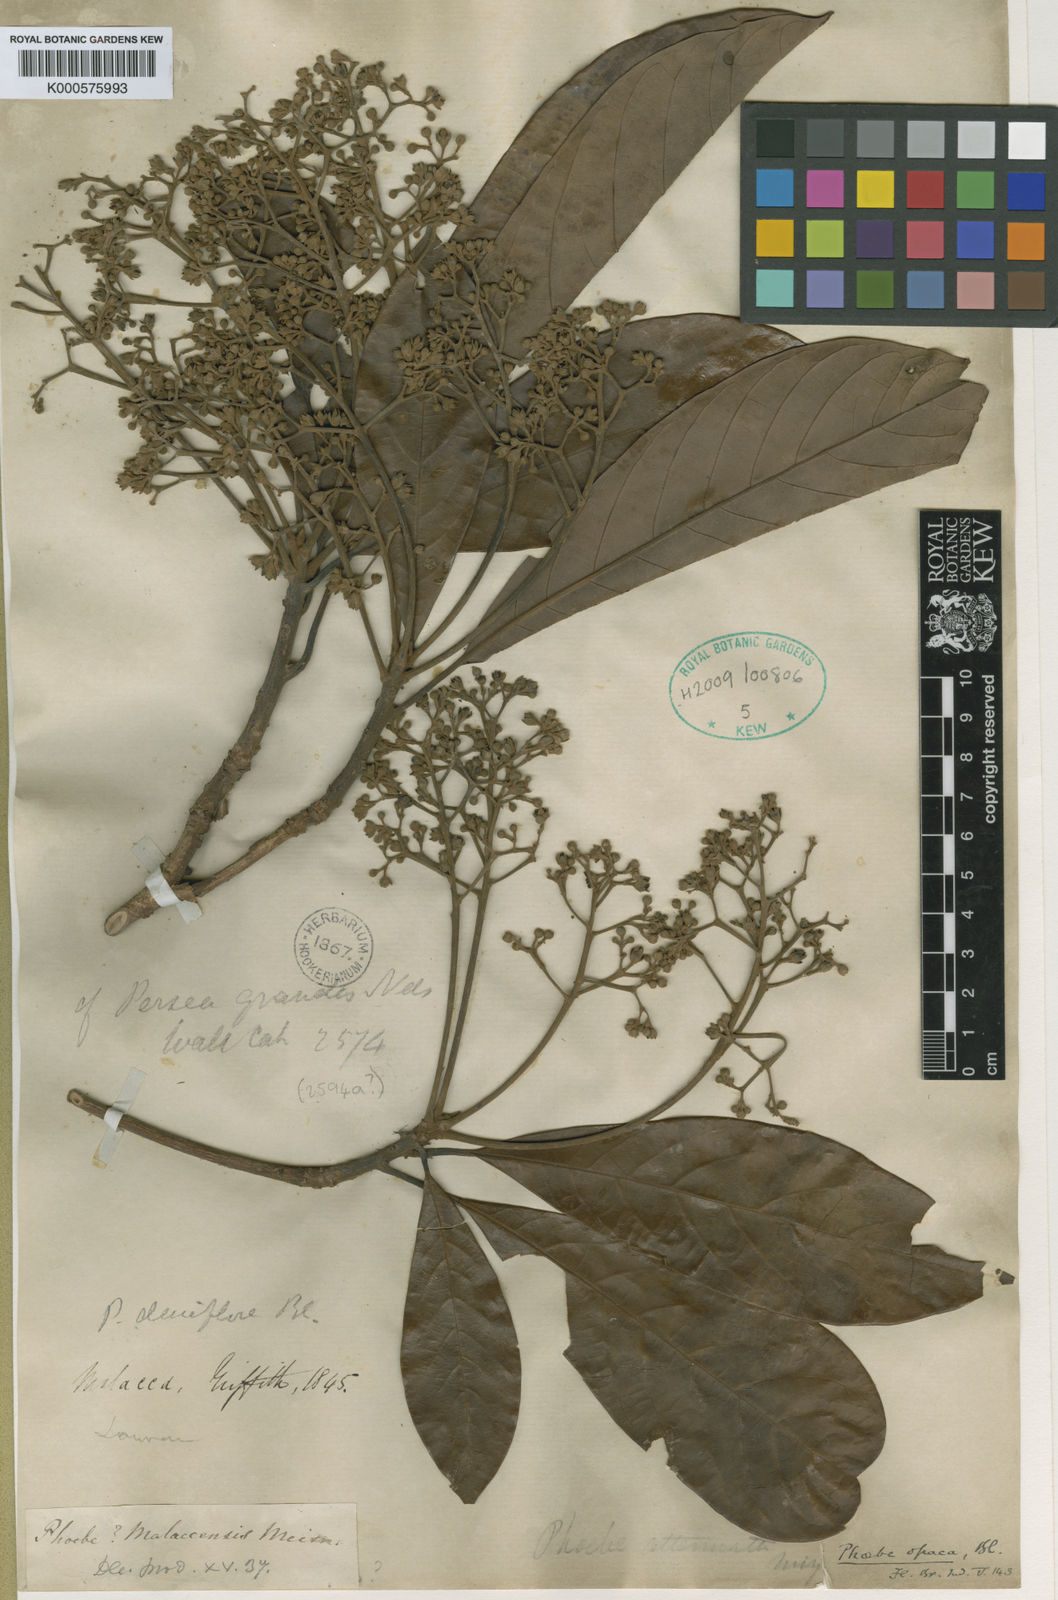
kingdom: Plantae
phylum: Tracheophyta
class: Magnoliopsida
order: Laurales
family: Lauraceae
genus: Phoebe
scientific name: Phoebe grandis
